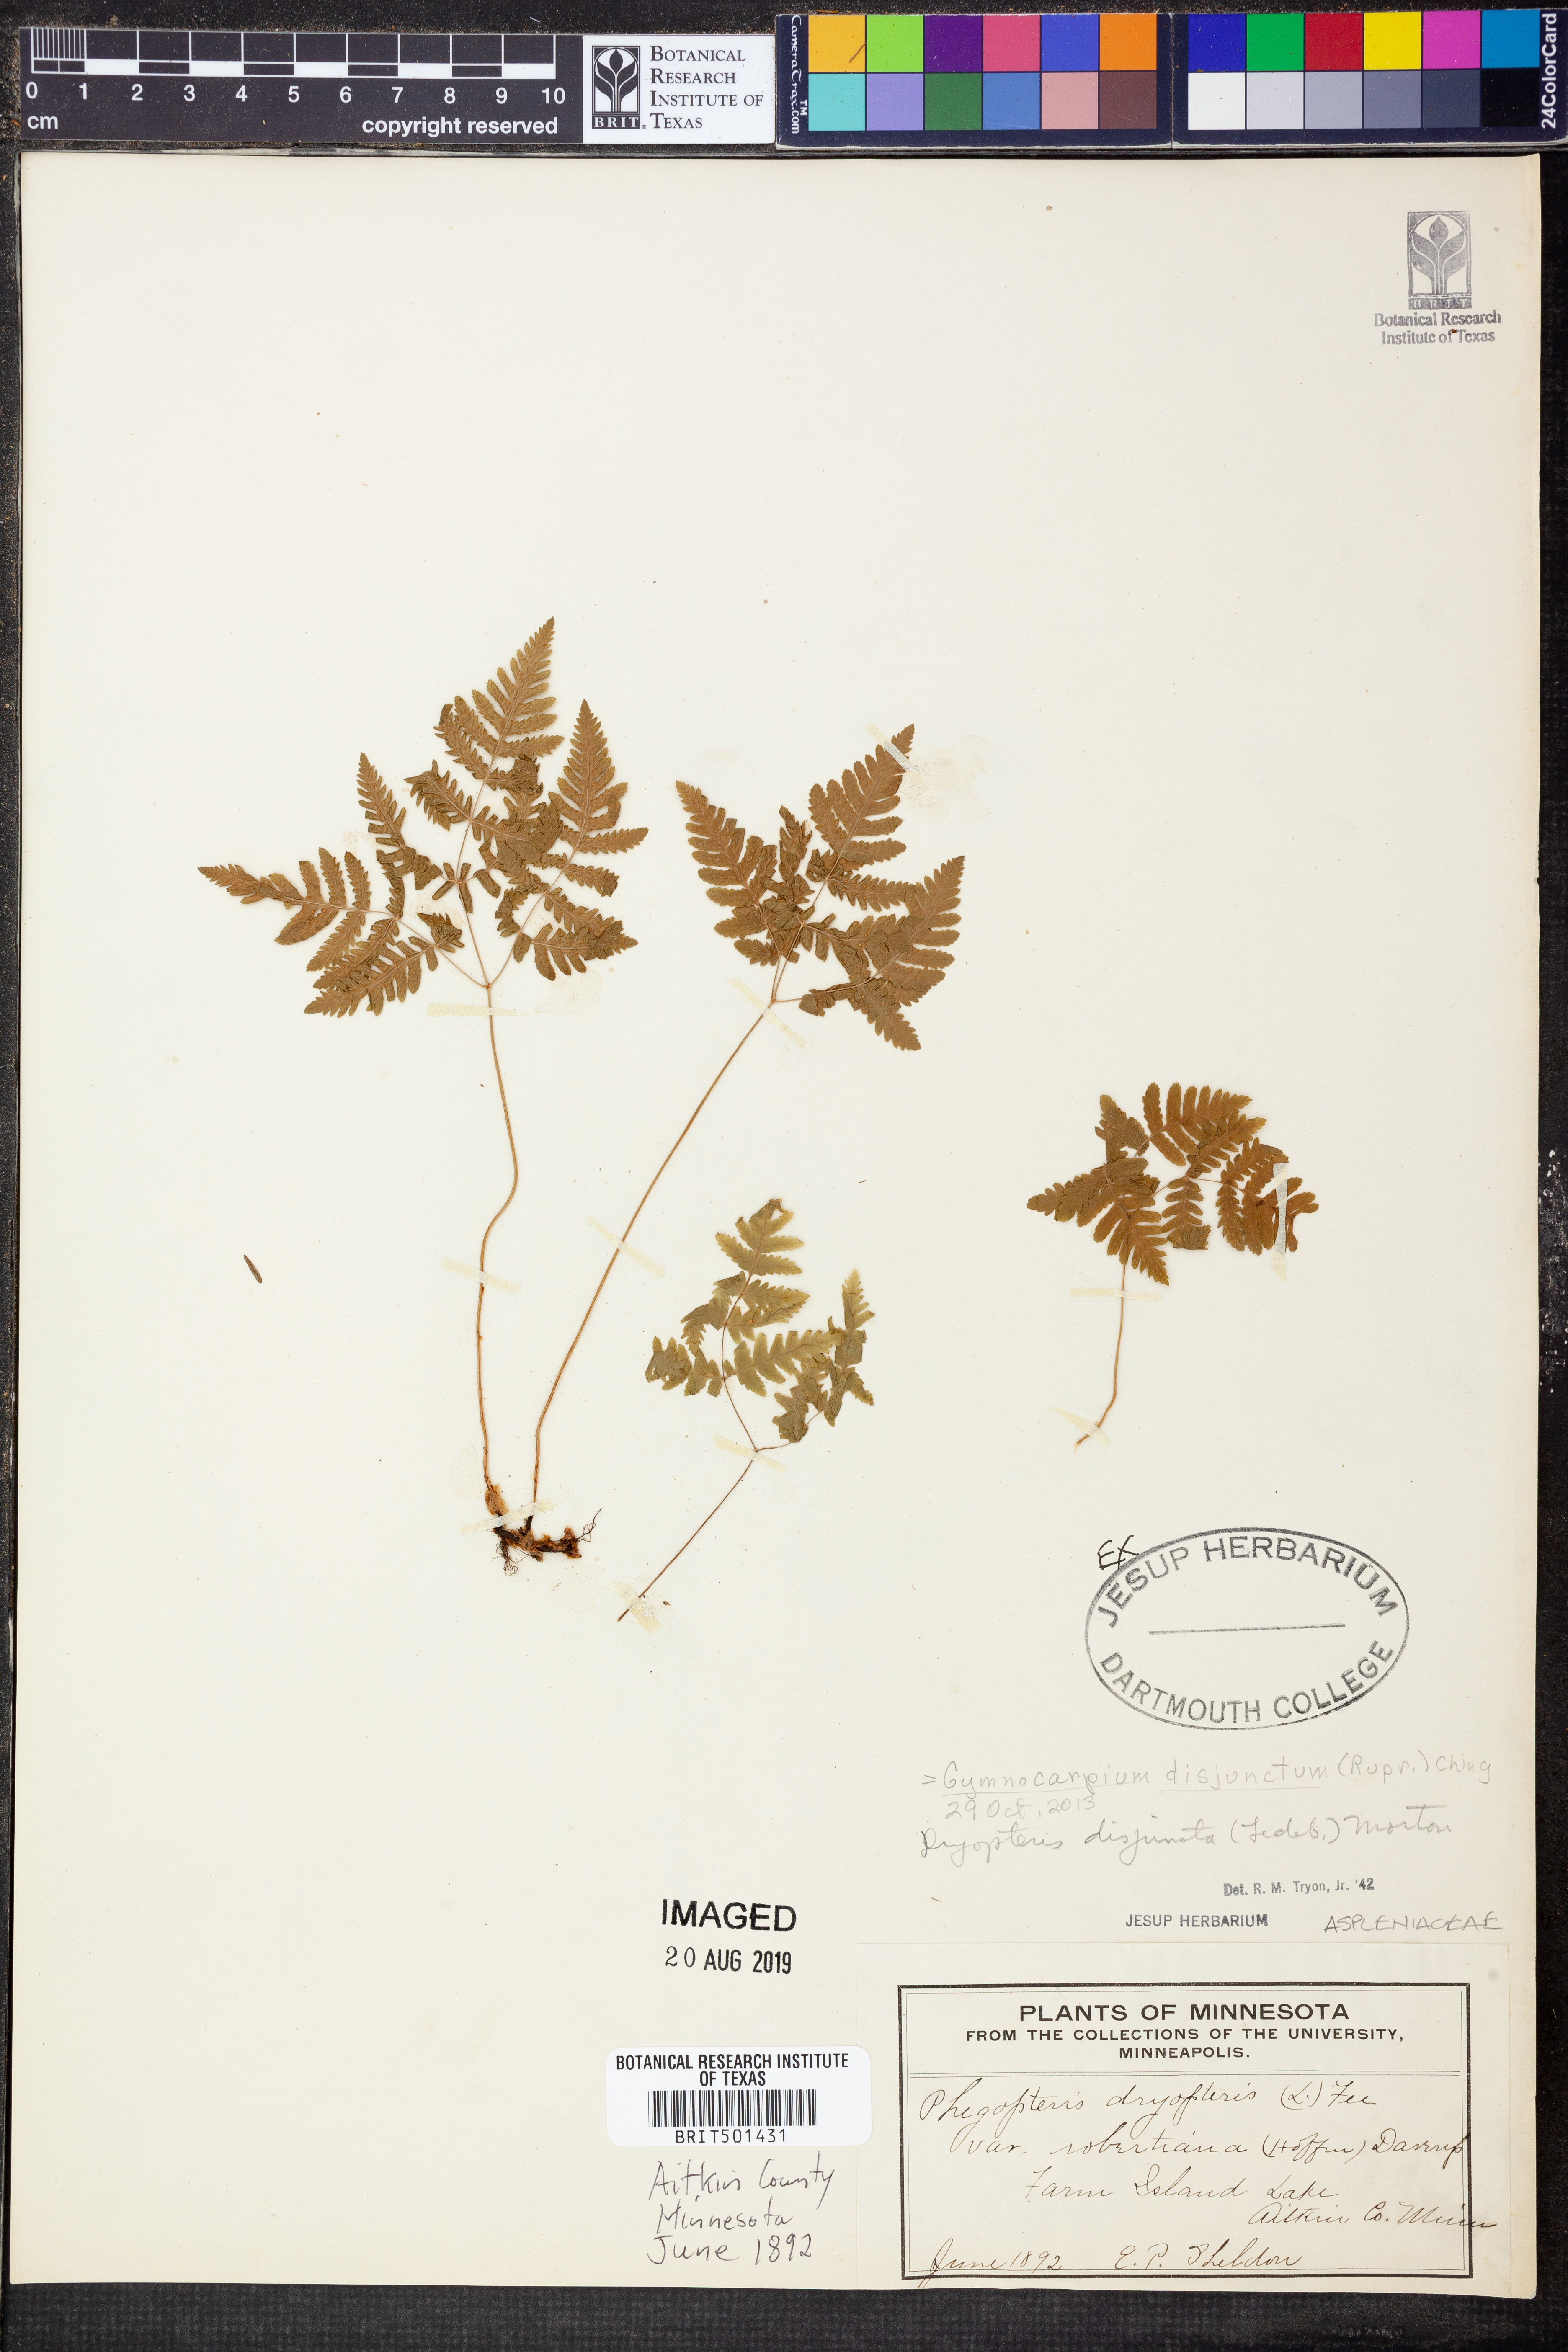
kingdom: Plantae
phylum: Tracheophyta
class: Polypodiopsida
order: Polypodiales
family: Cystopteridaceae
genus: Gymnocarpium
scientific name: Gymnocarpium disjunctum
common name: Western oak fern
